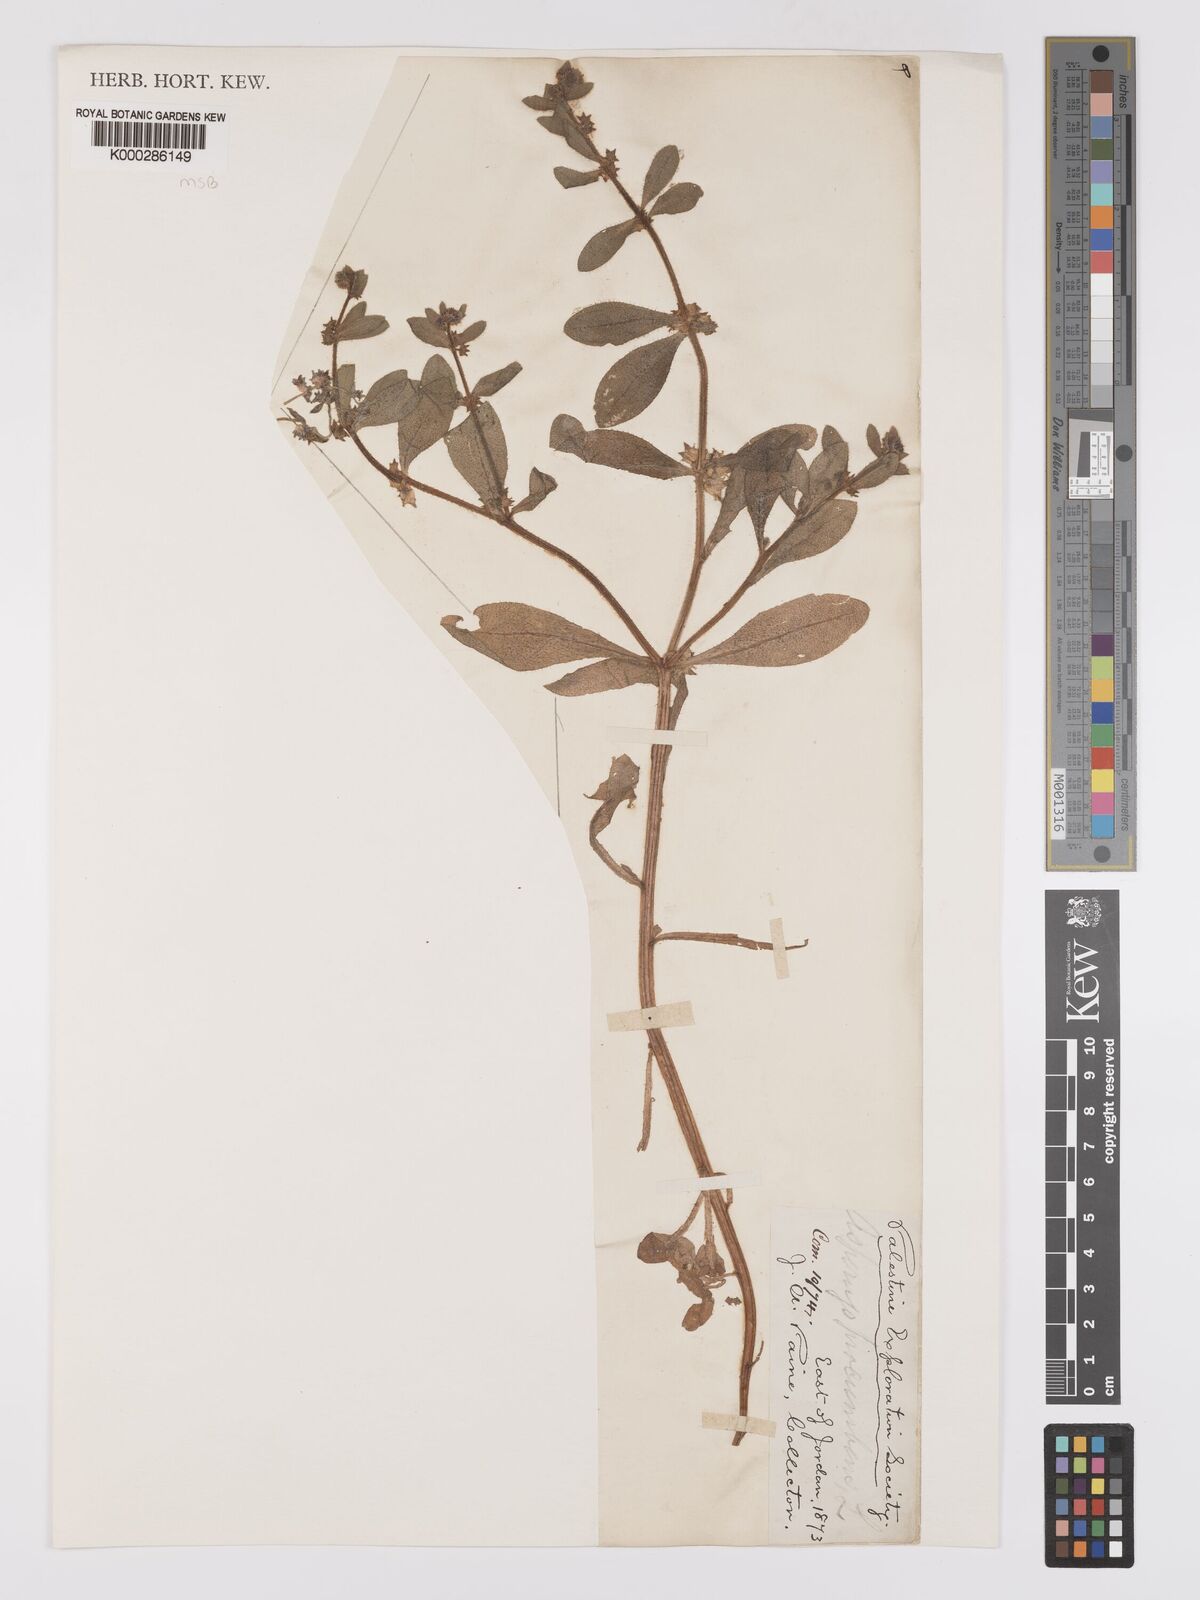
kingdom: Plantae
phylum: Tracheophyta
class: Magnoliopsida
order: Boraginales
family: Boraginaceae
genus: Asperugo
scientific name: Asperugo procumbens
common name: Madwort
